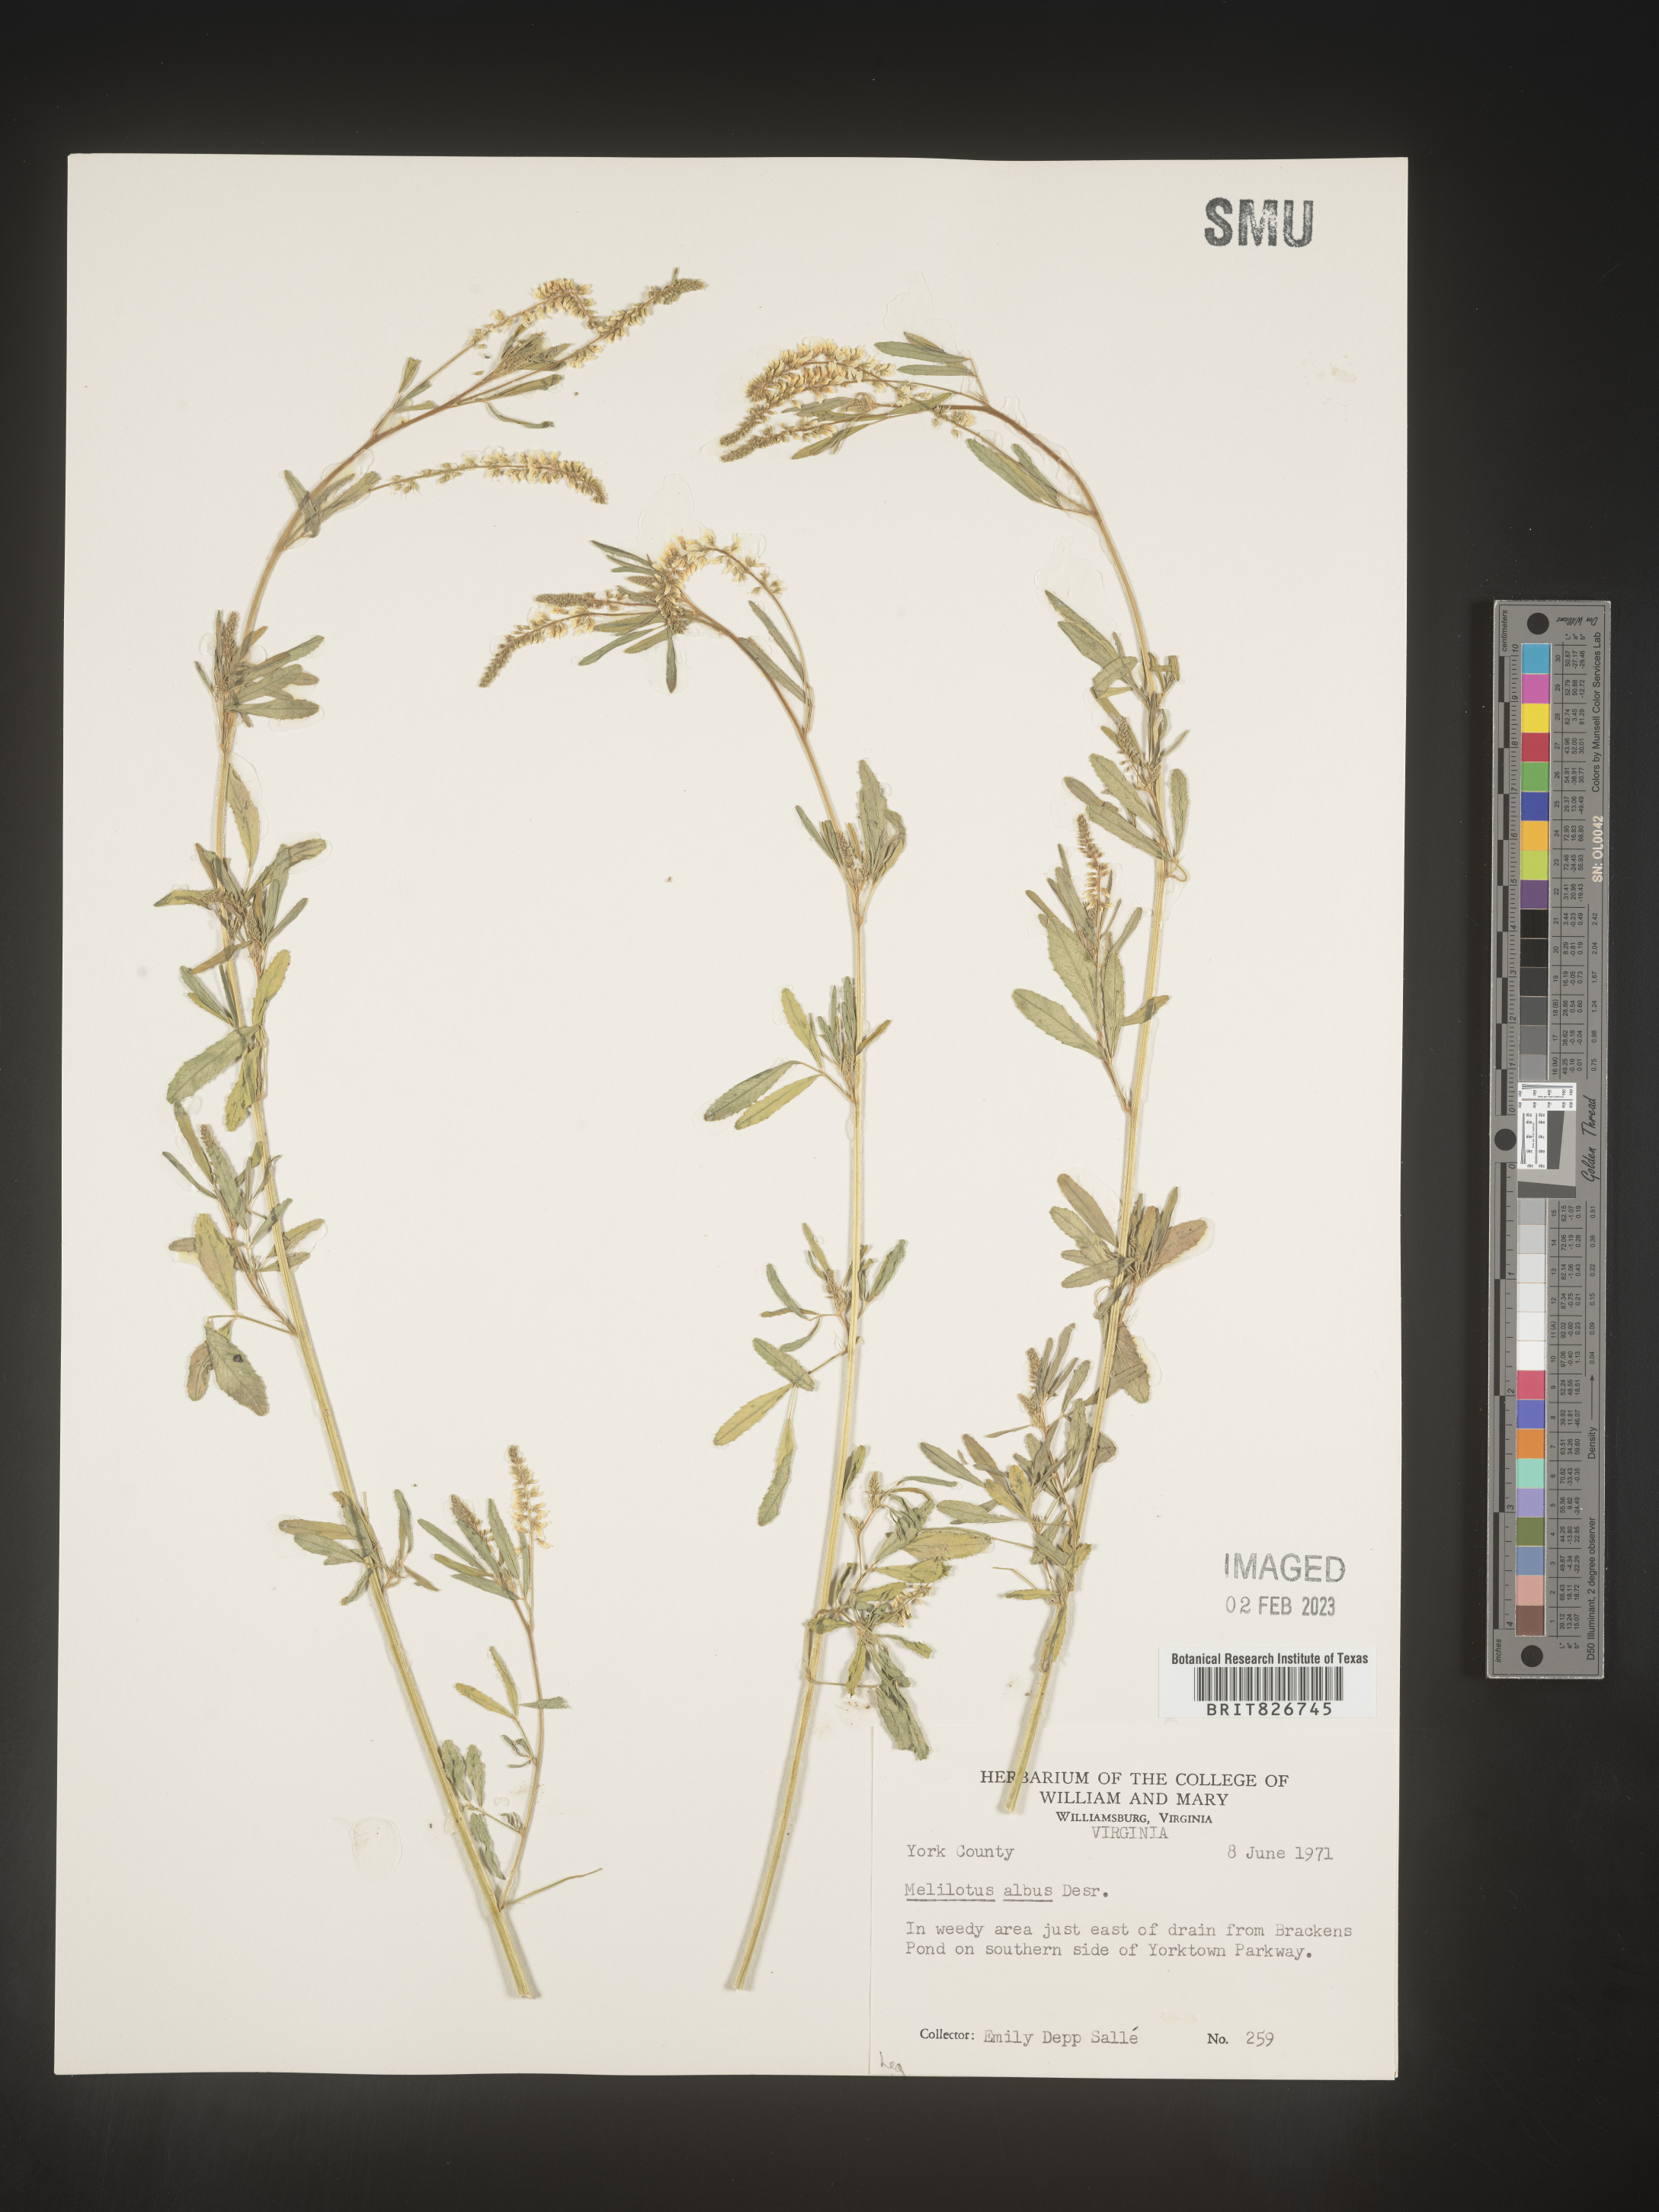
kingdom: Plantae
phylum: Tracheophyta
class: Magnoliopsida
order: Fabales
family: Fabaceae
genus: Melilotus
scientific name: Melilotus albus
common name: White melilot
